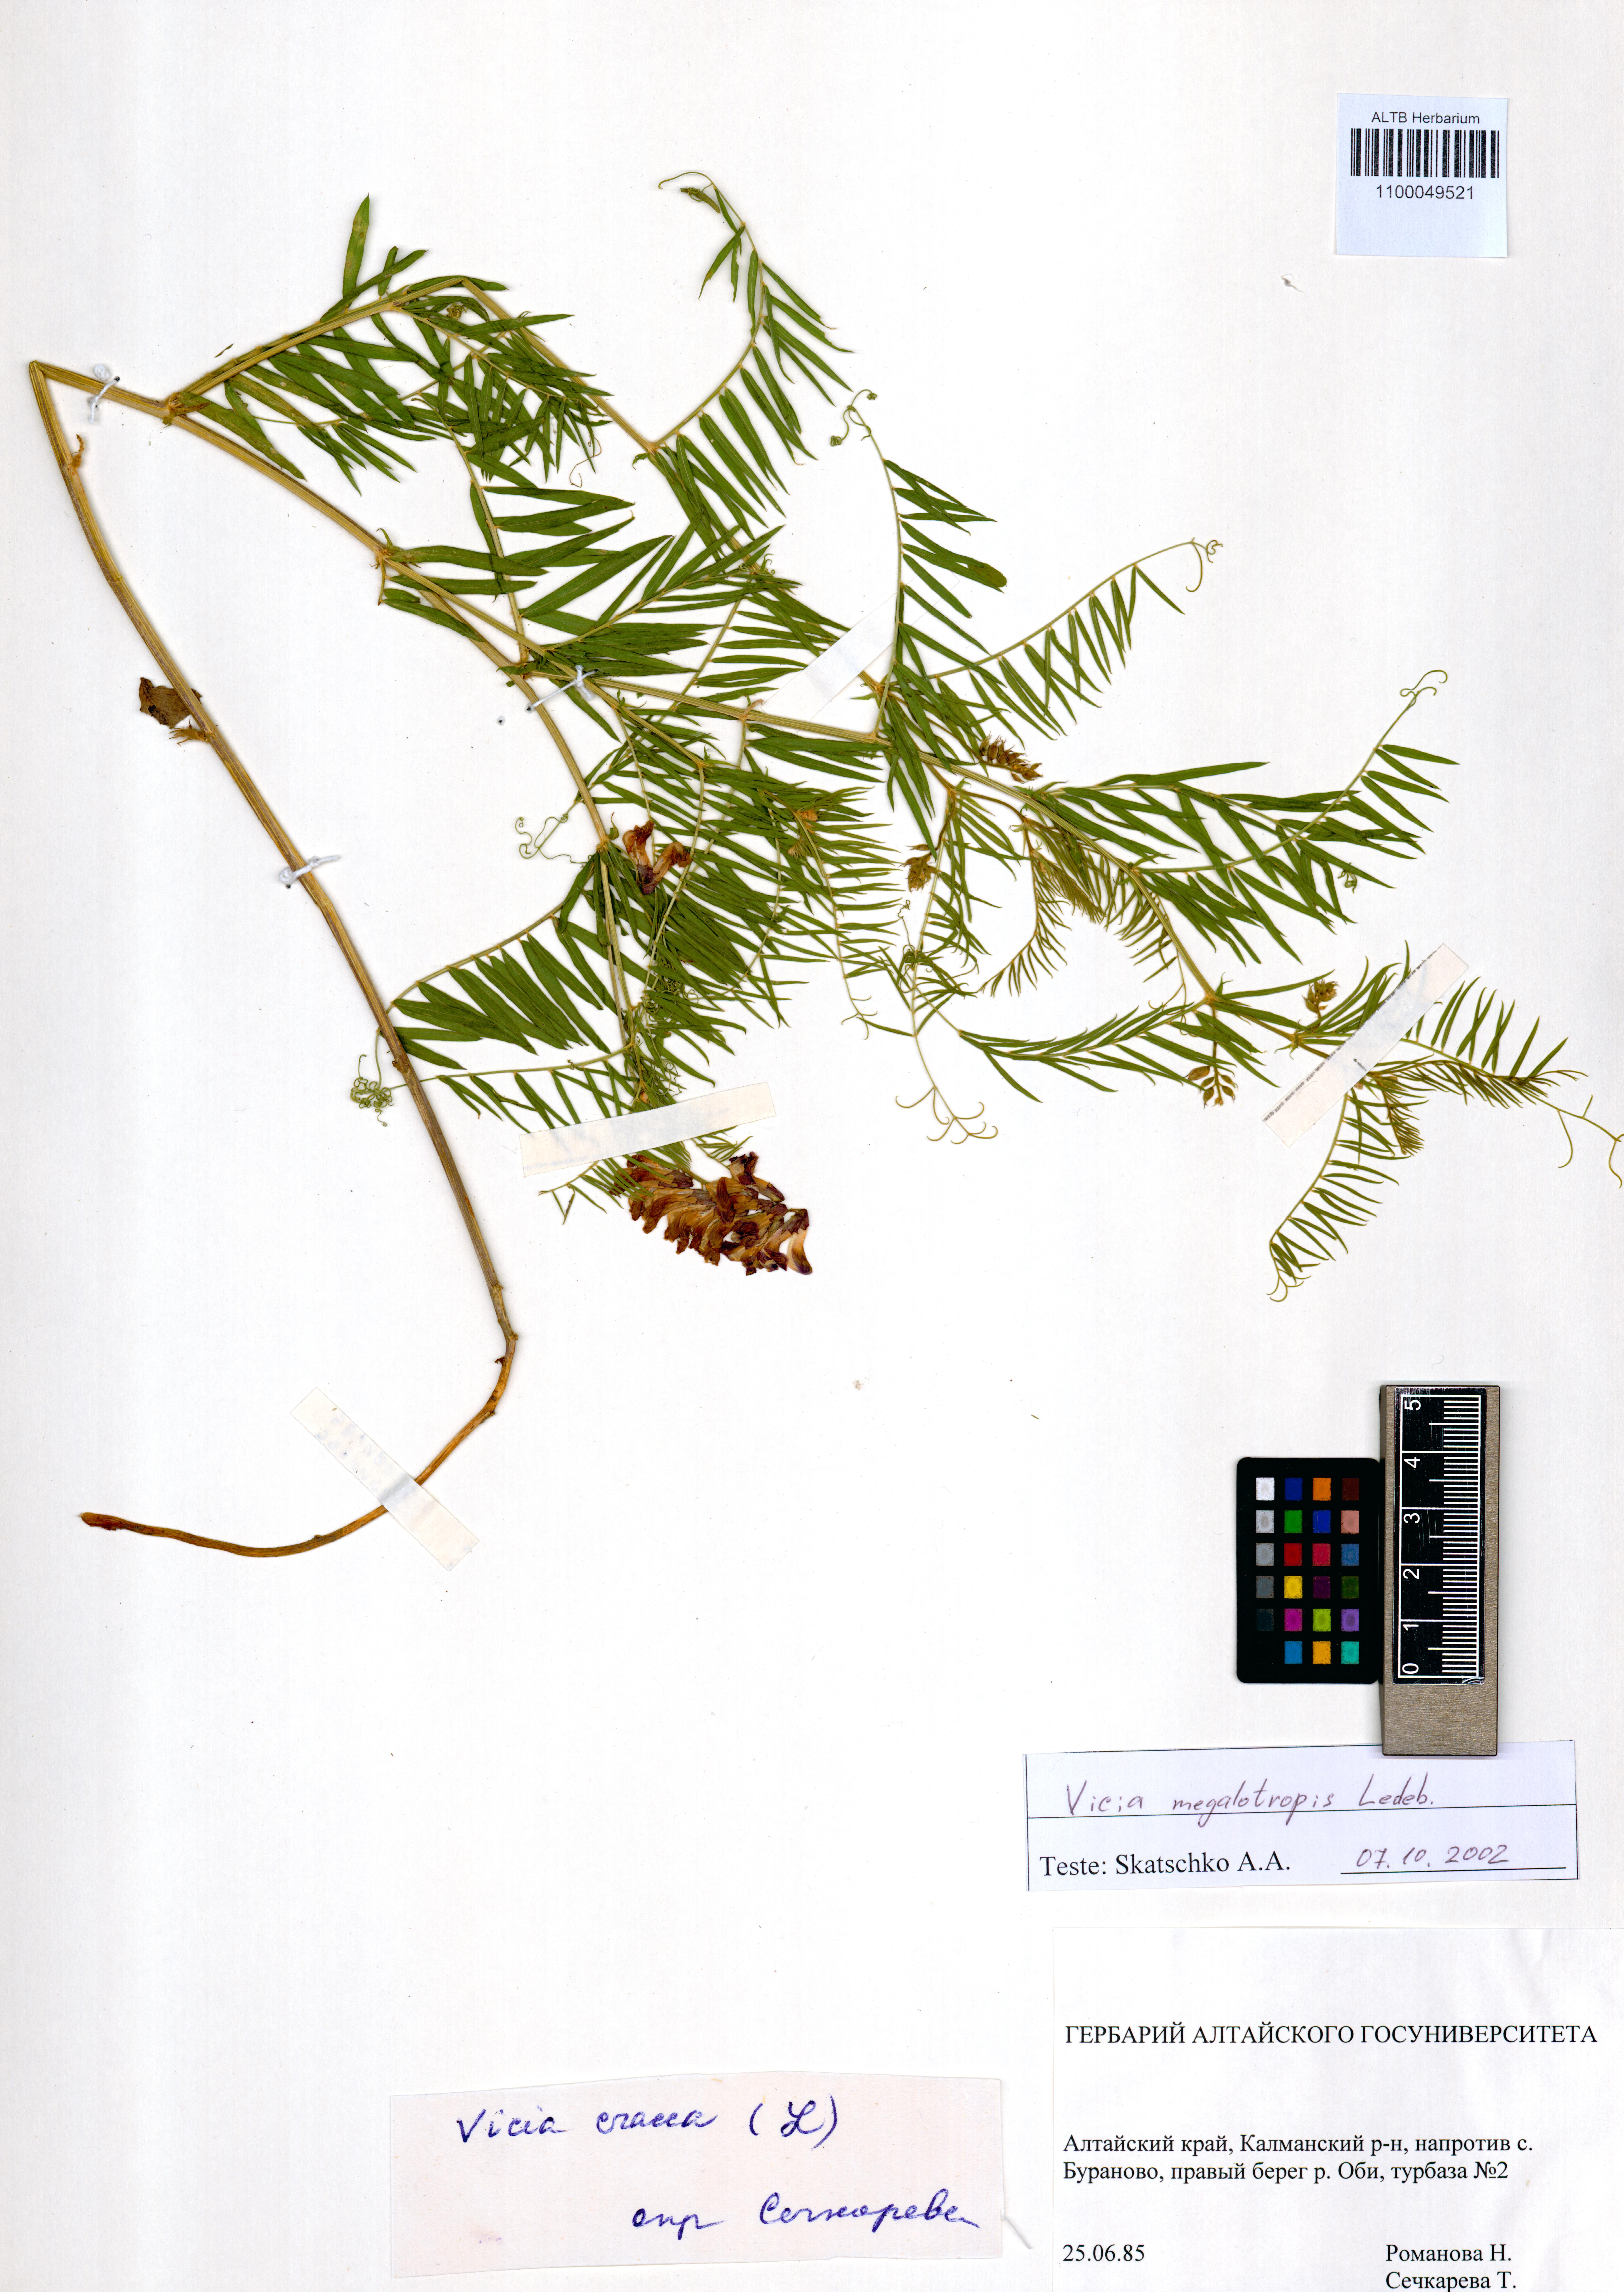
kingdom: Plantae
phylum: Tracheophyta
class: Magnoliopsida
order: Fabales
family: Fabaceae
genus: Vicia
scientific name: Vicia megalotropis
